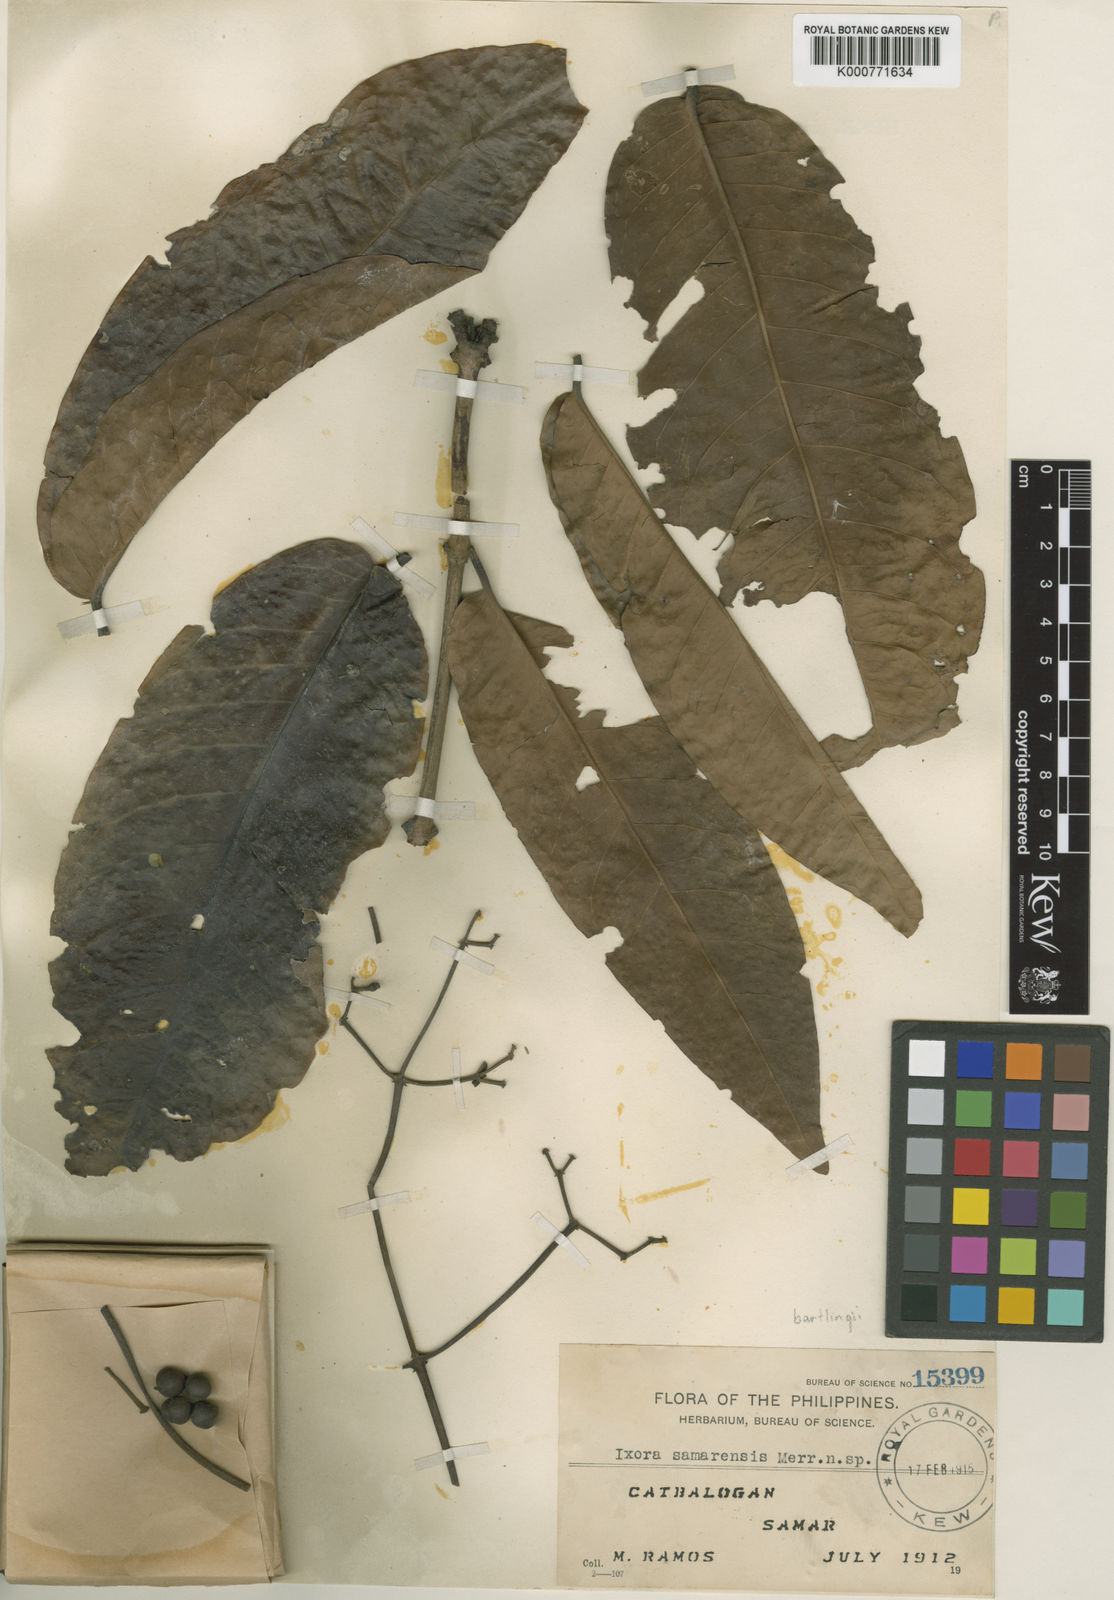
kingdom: Plantae
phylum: Tracheophyta
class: Magnoliopsida
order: Gentianales
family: Rubiaceae
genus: Ixora
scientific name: Ixora samarensis
